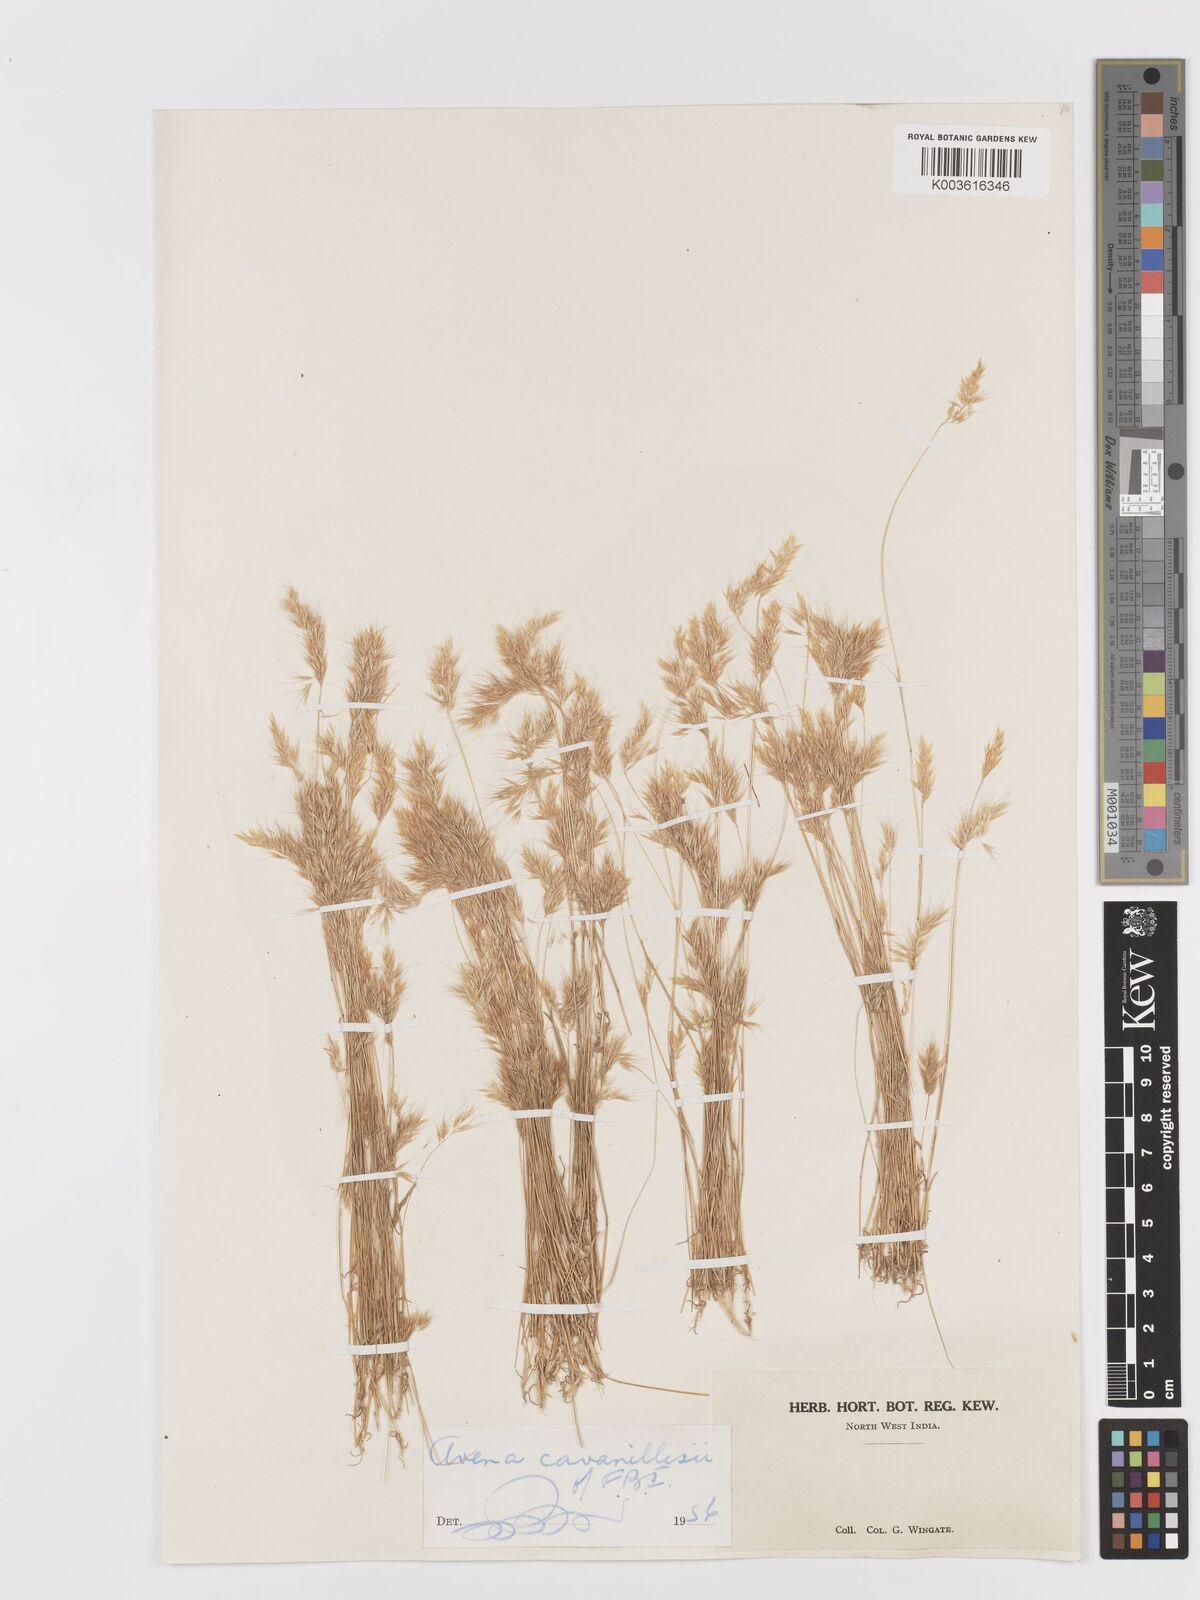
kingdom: Plantae
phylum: Tracheophyta
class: Liliopsida
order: Poales
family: Poaceae
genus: Trisetaria
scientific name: Trisetaria loeflingiana
